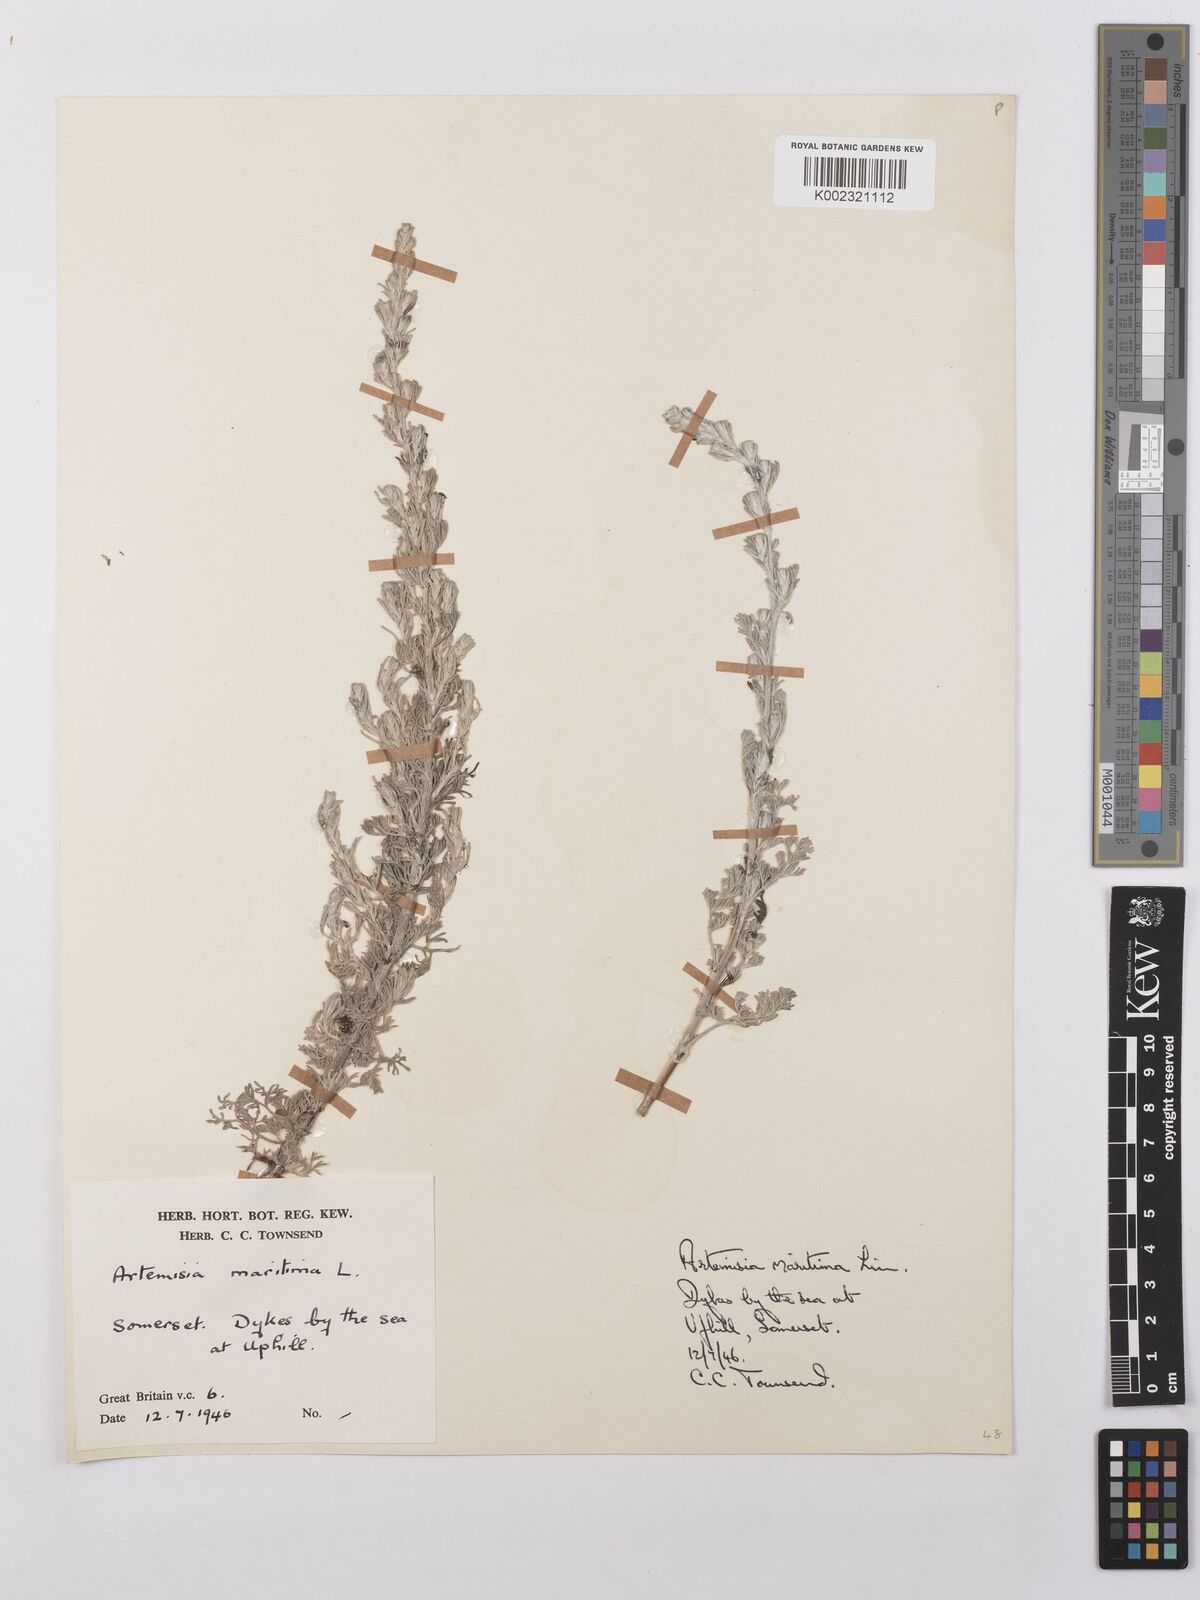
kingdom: Plantae
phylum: Tracheophyta
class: Magnoliopsida
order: Asterales
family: Asteraceae
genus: Artemisia
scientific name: Artemisia maritima
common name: Wormseed
